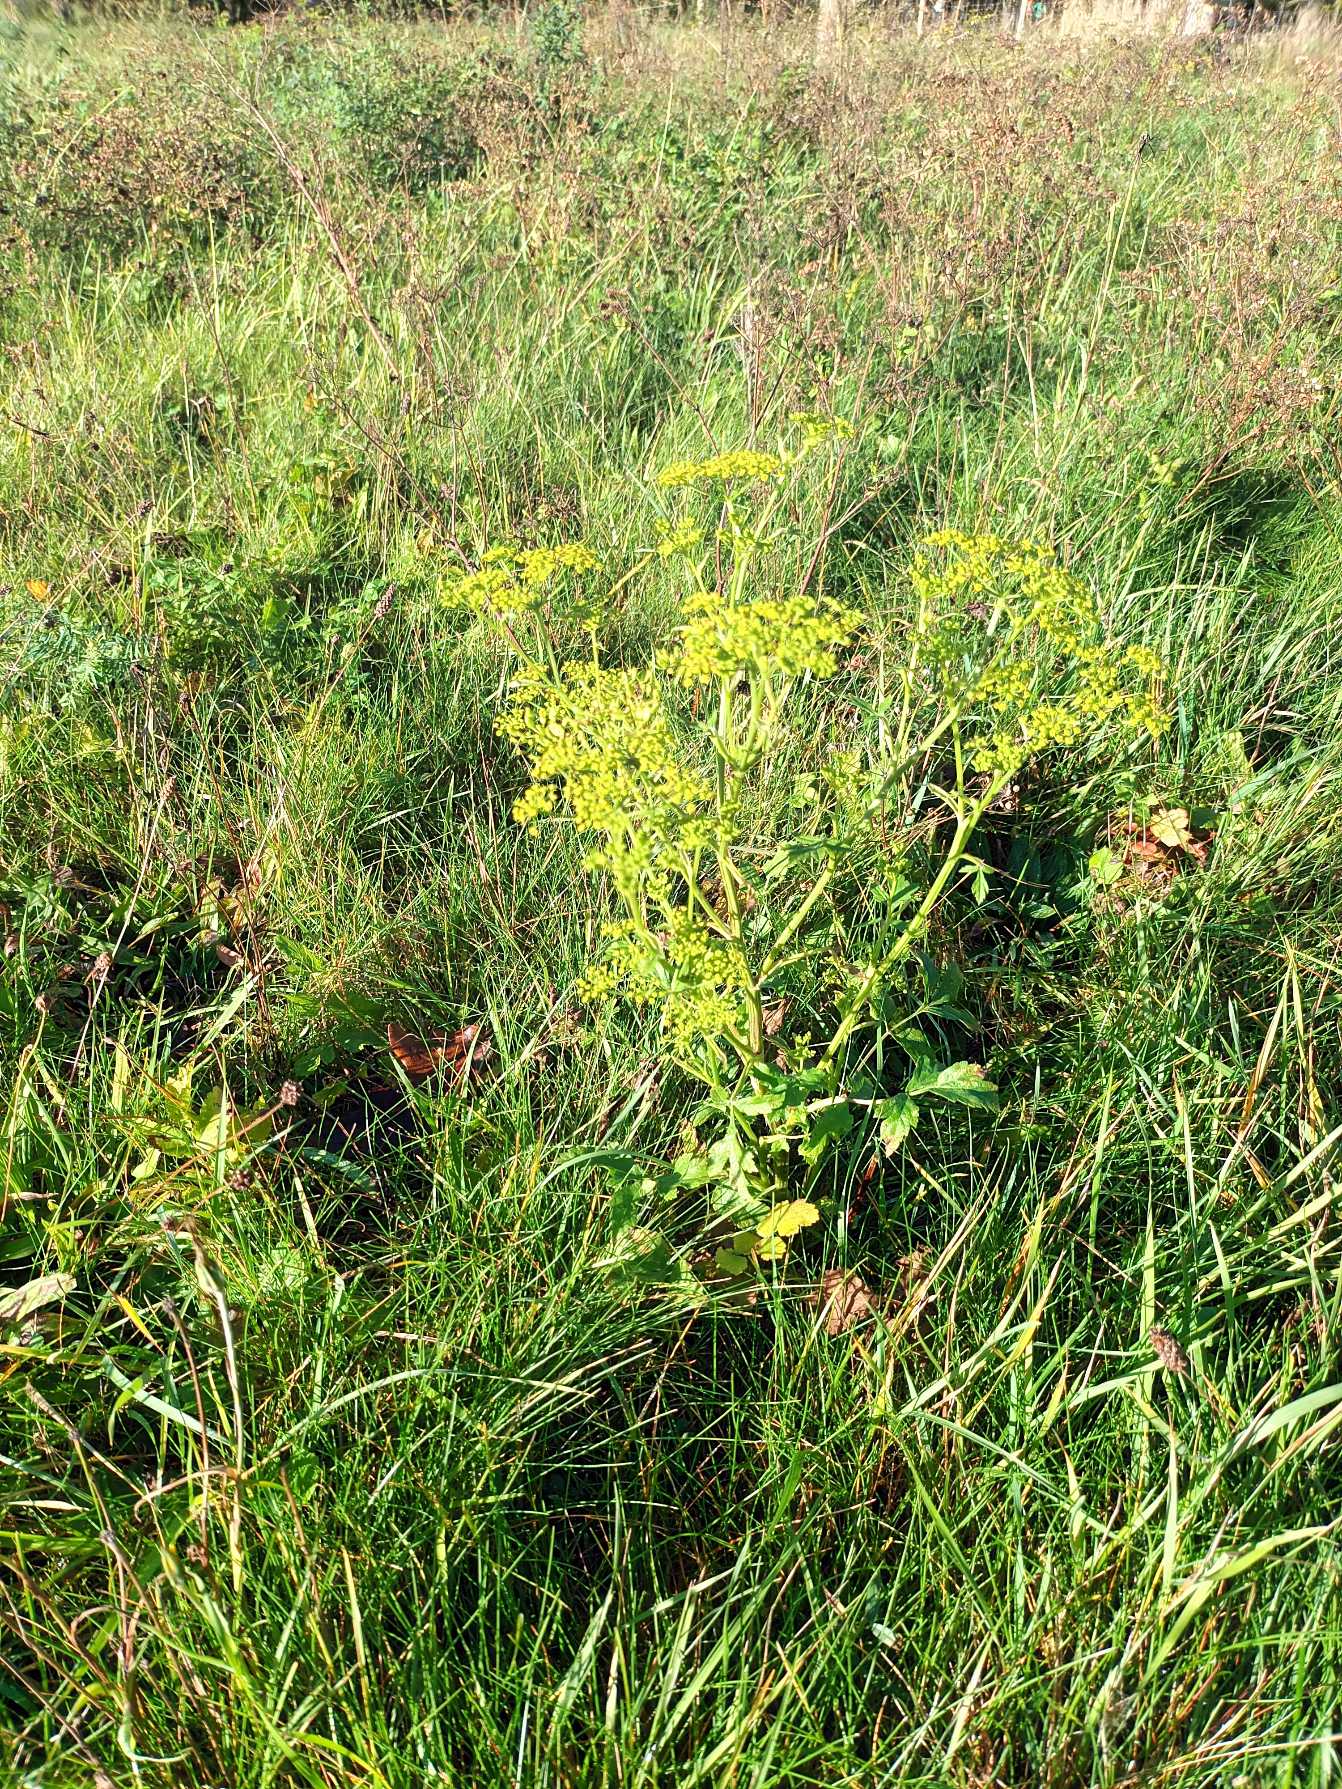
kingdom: Plantae
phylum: Tracheophyta
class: Magnoliopsida
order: Apiales
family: Apiaceae
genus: Pastinaca
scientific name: Pastinaca sativa
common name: Pastinak
